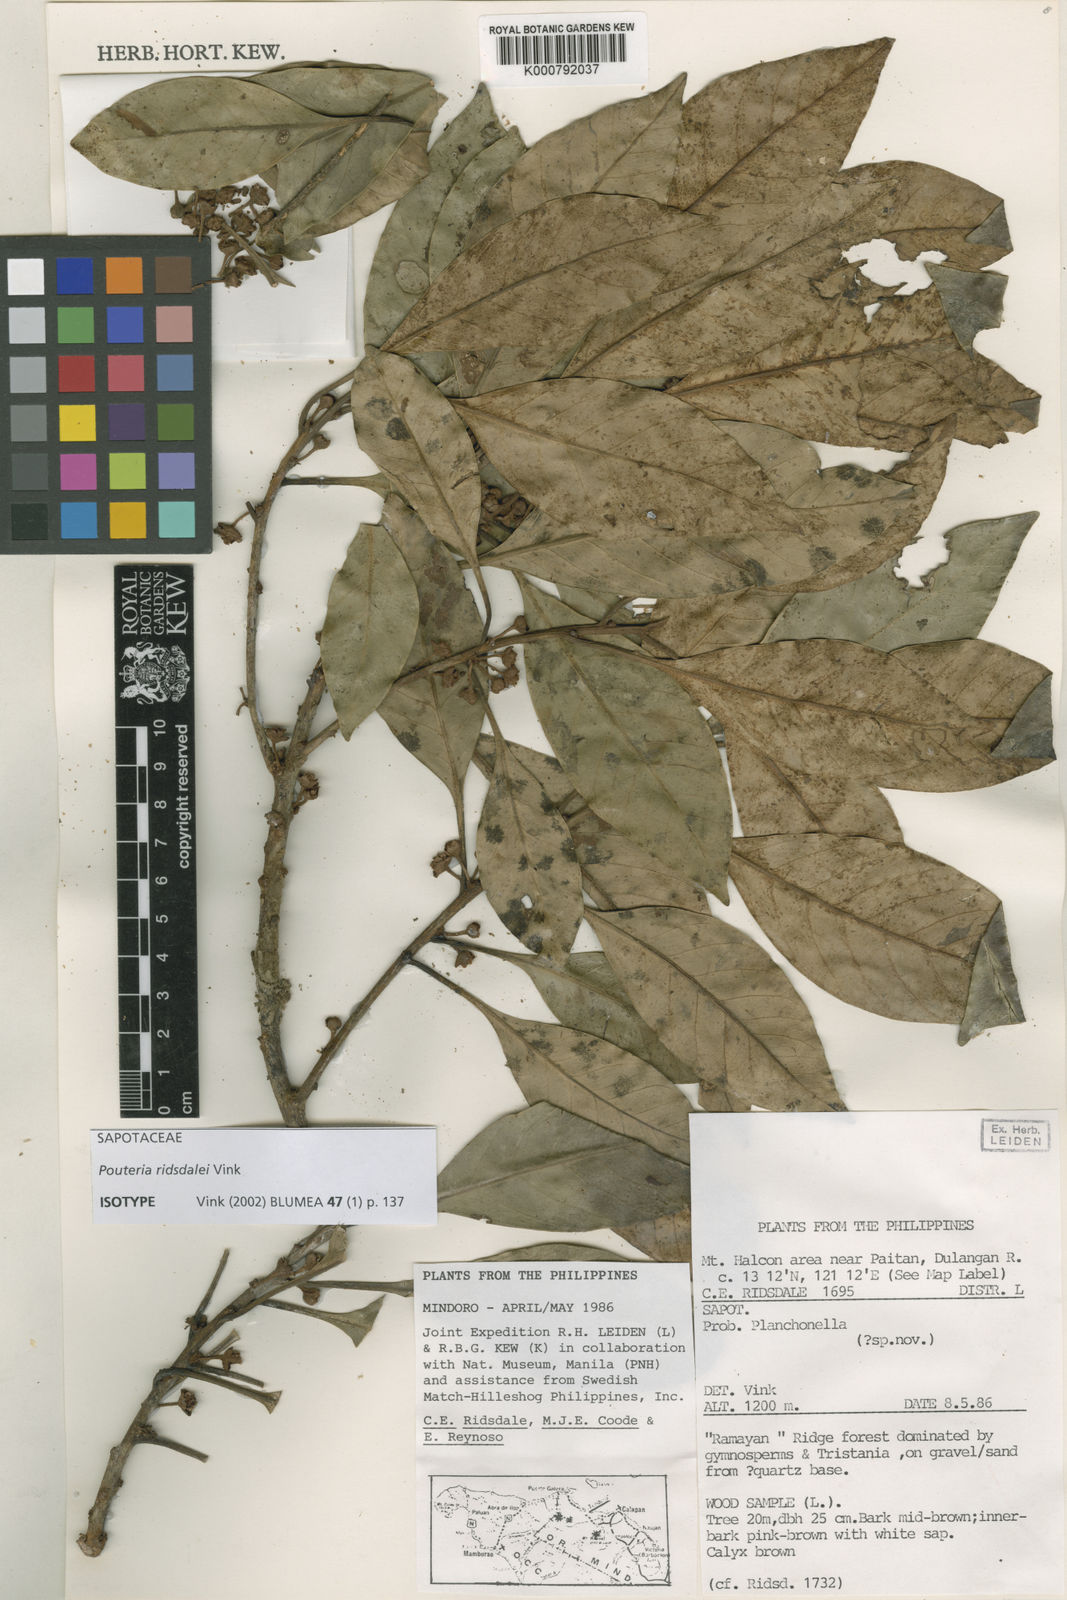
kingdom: Plantae
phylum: Tracheophyta
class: Magnoliopsida
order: Ericales
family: Sapotaceae
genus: Planchonella
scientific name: Planchonella obovata
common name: Black-ash
